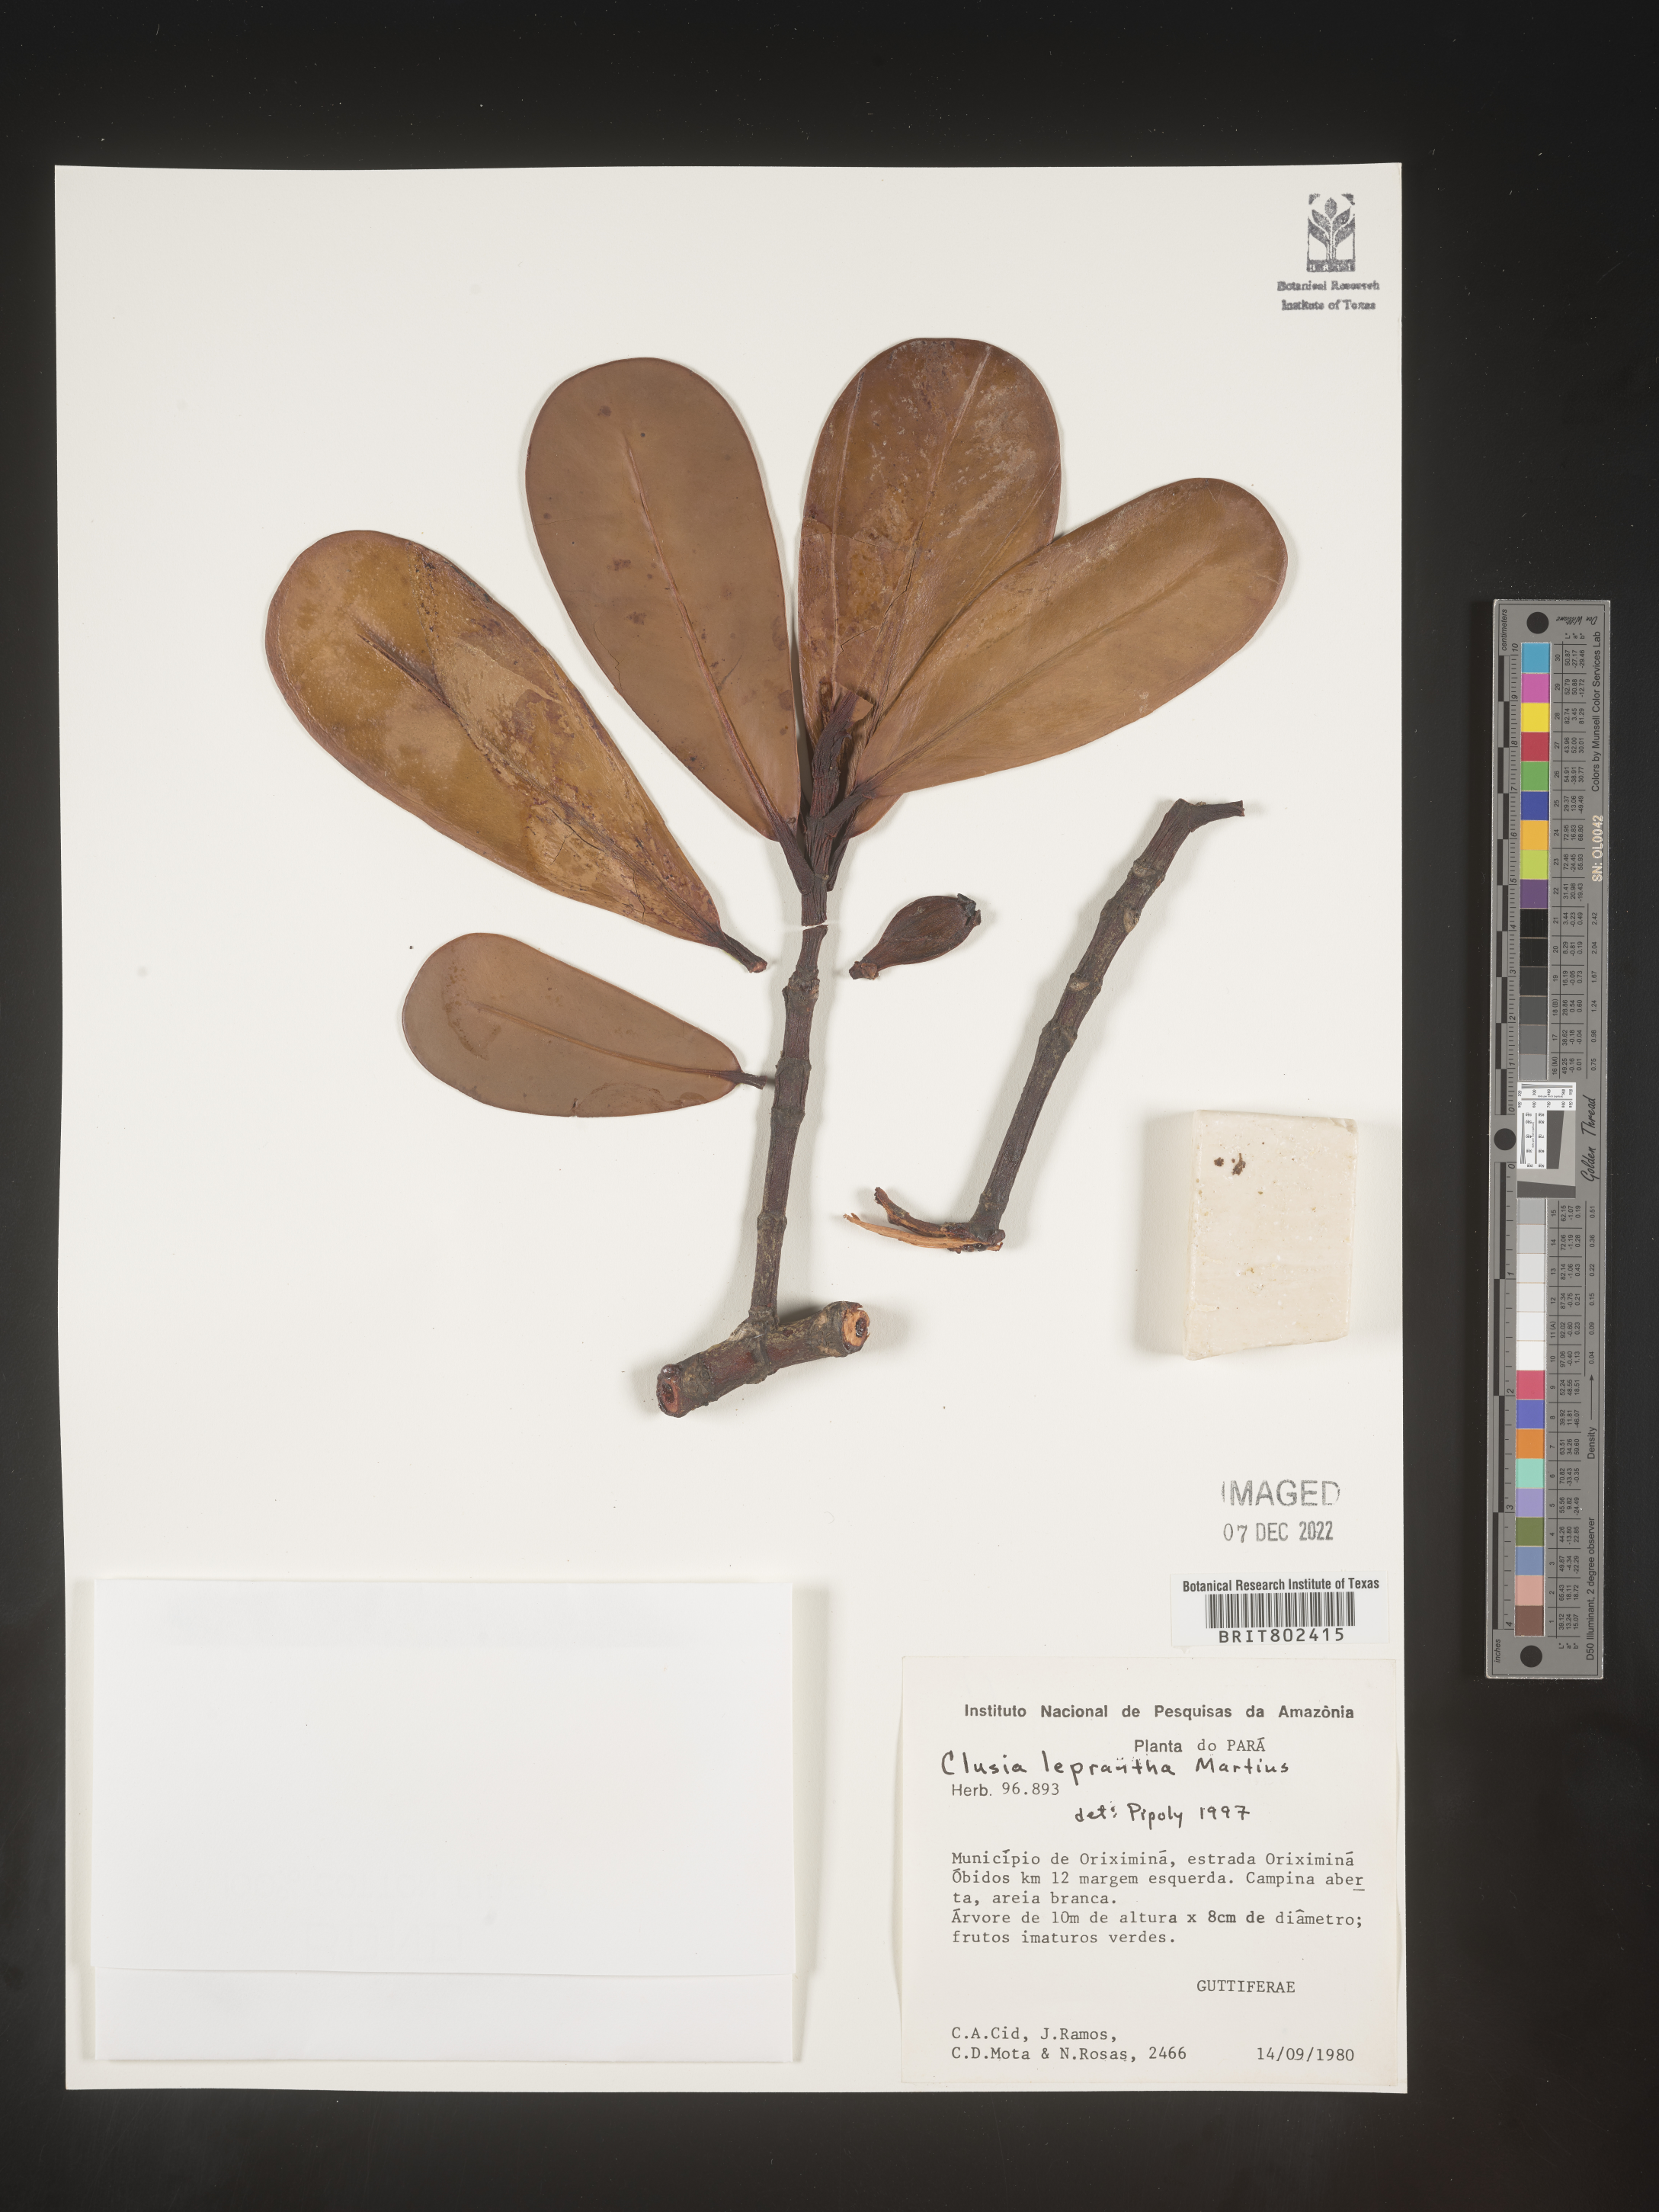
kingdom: Plantae
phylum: Tracheophyta
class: Magnoliopsida
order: Malpighiales
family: Clusiaceae
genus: Clusia
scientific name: Clusia
